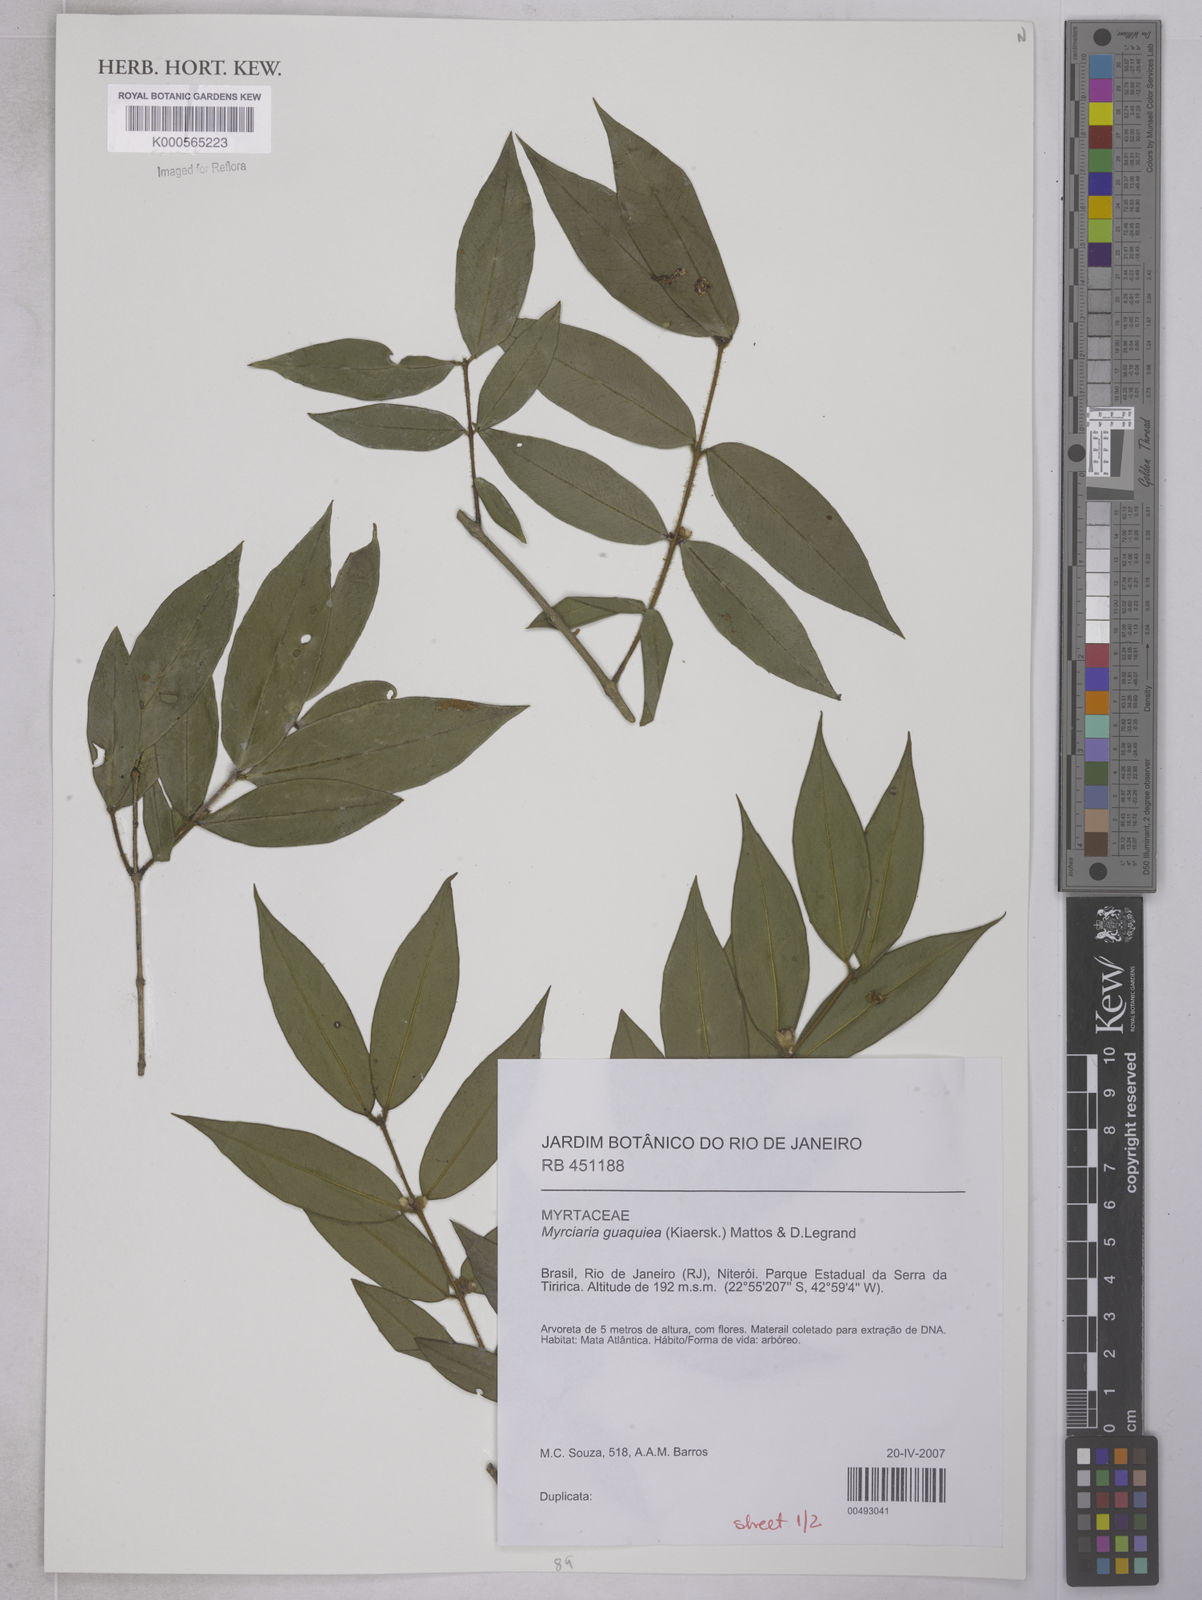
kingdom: Plantae
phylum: Tracheophyta
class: Magnoliopsida
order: Myrtales
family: Myrtaceae
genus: Myrciaria
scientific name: Myrciaria guaquiea
